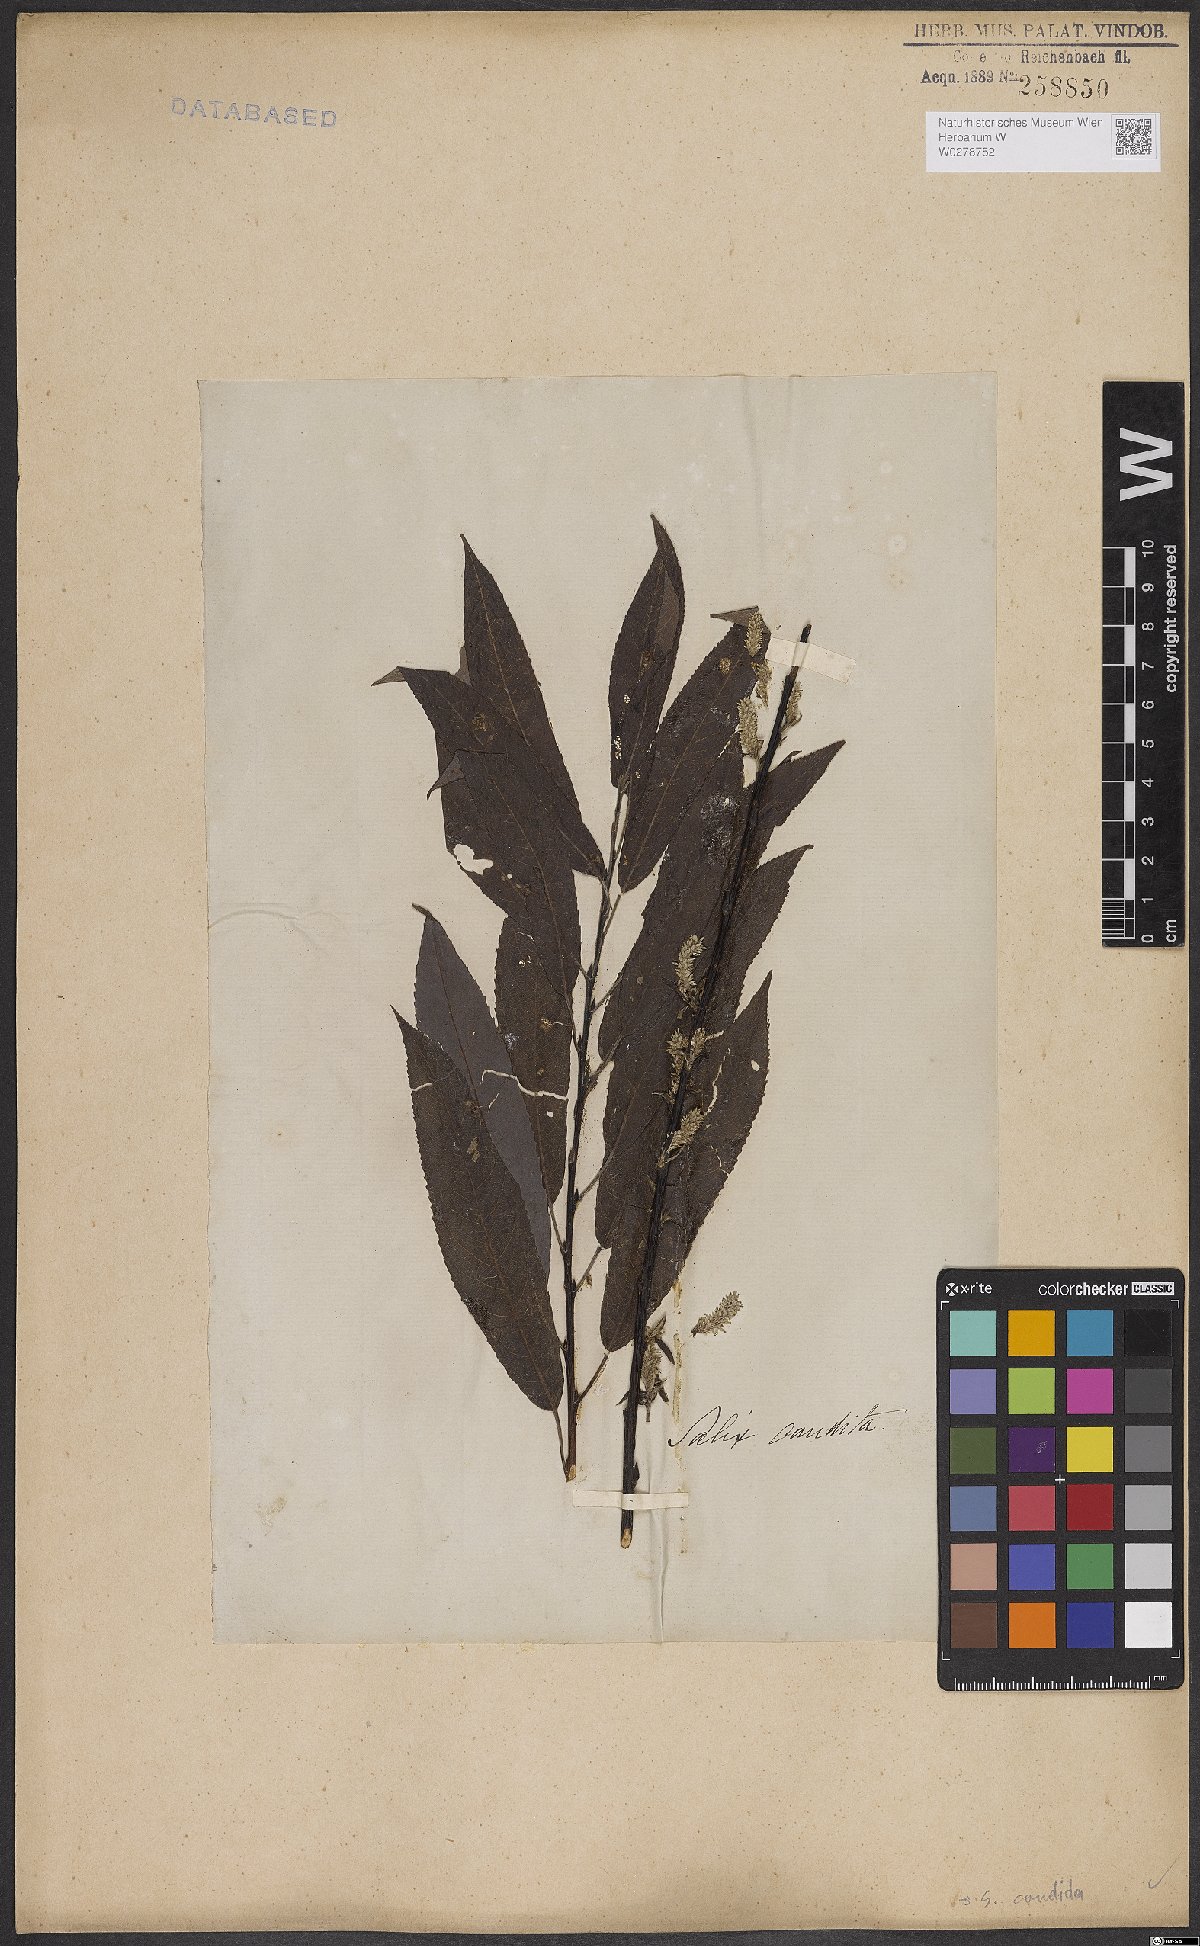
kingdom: Plantae
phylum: Tracheophyta
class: Magnoliopsida
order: Malpighiales
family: Salicaceae
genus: Salix
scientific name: Salix candida
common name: Hoary willow
